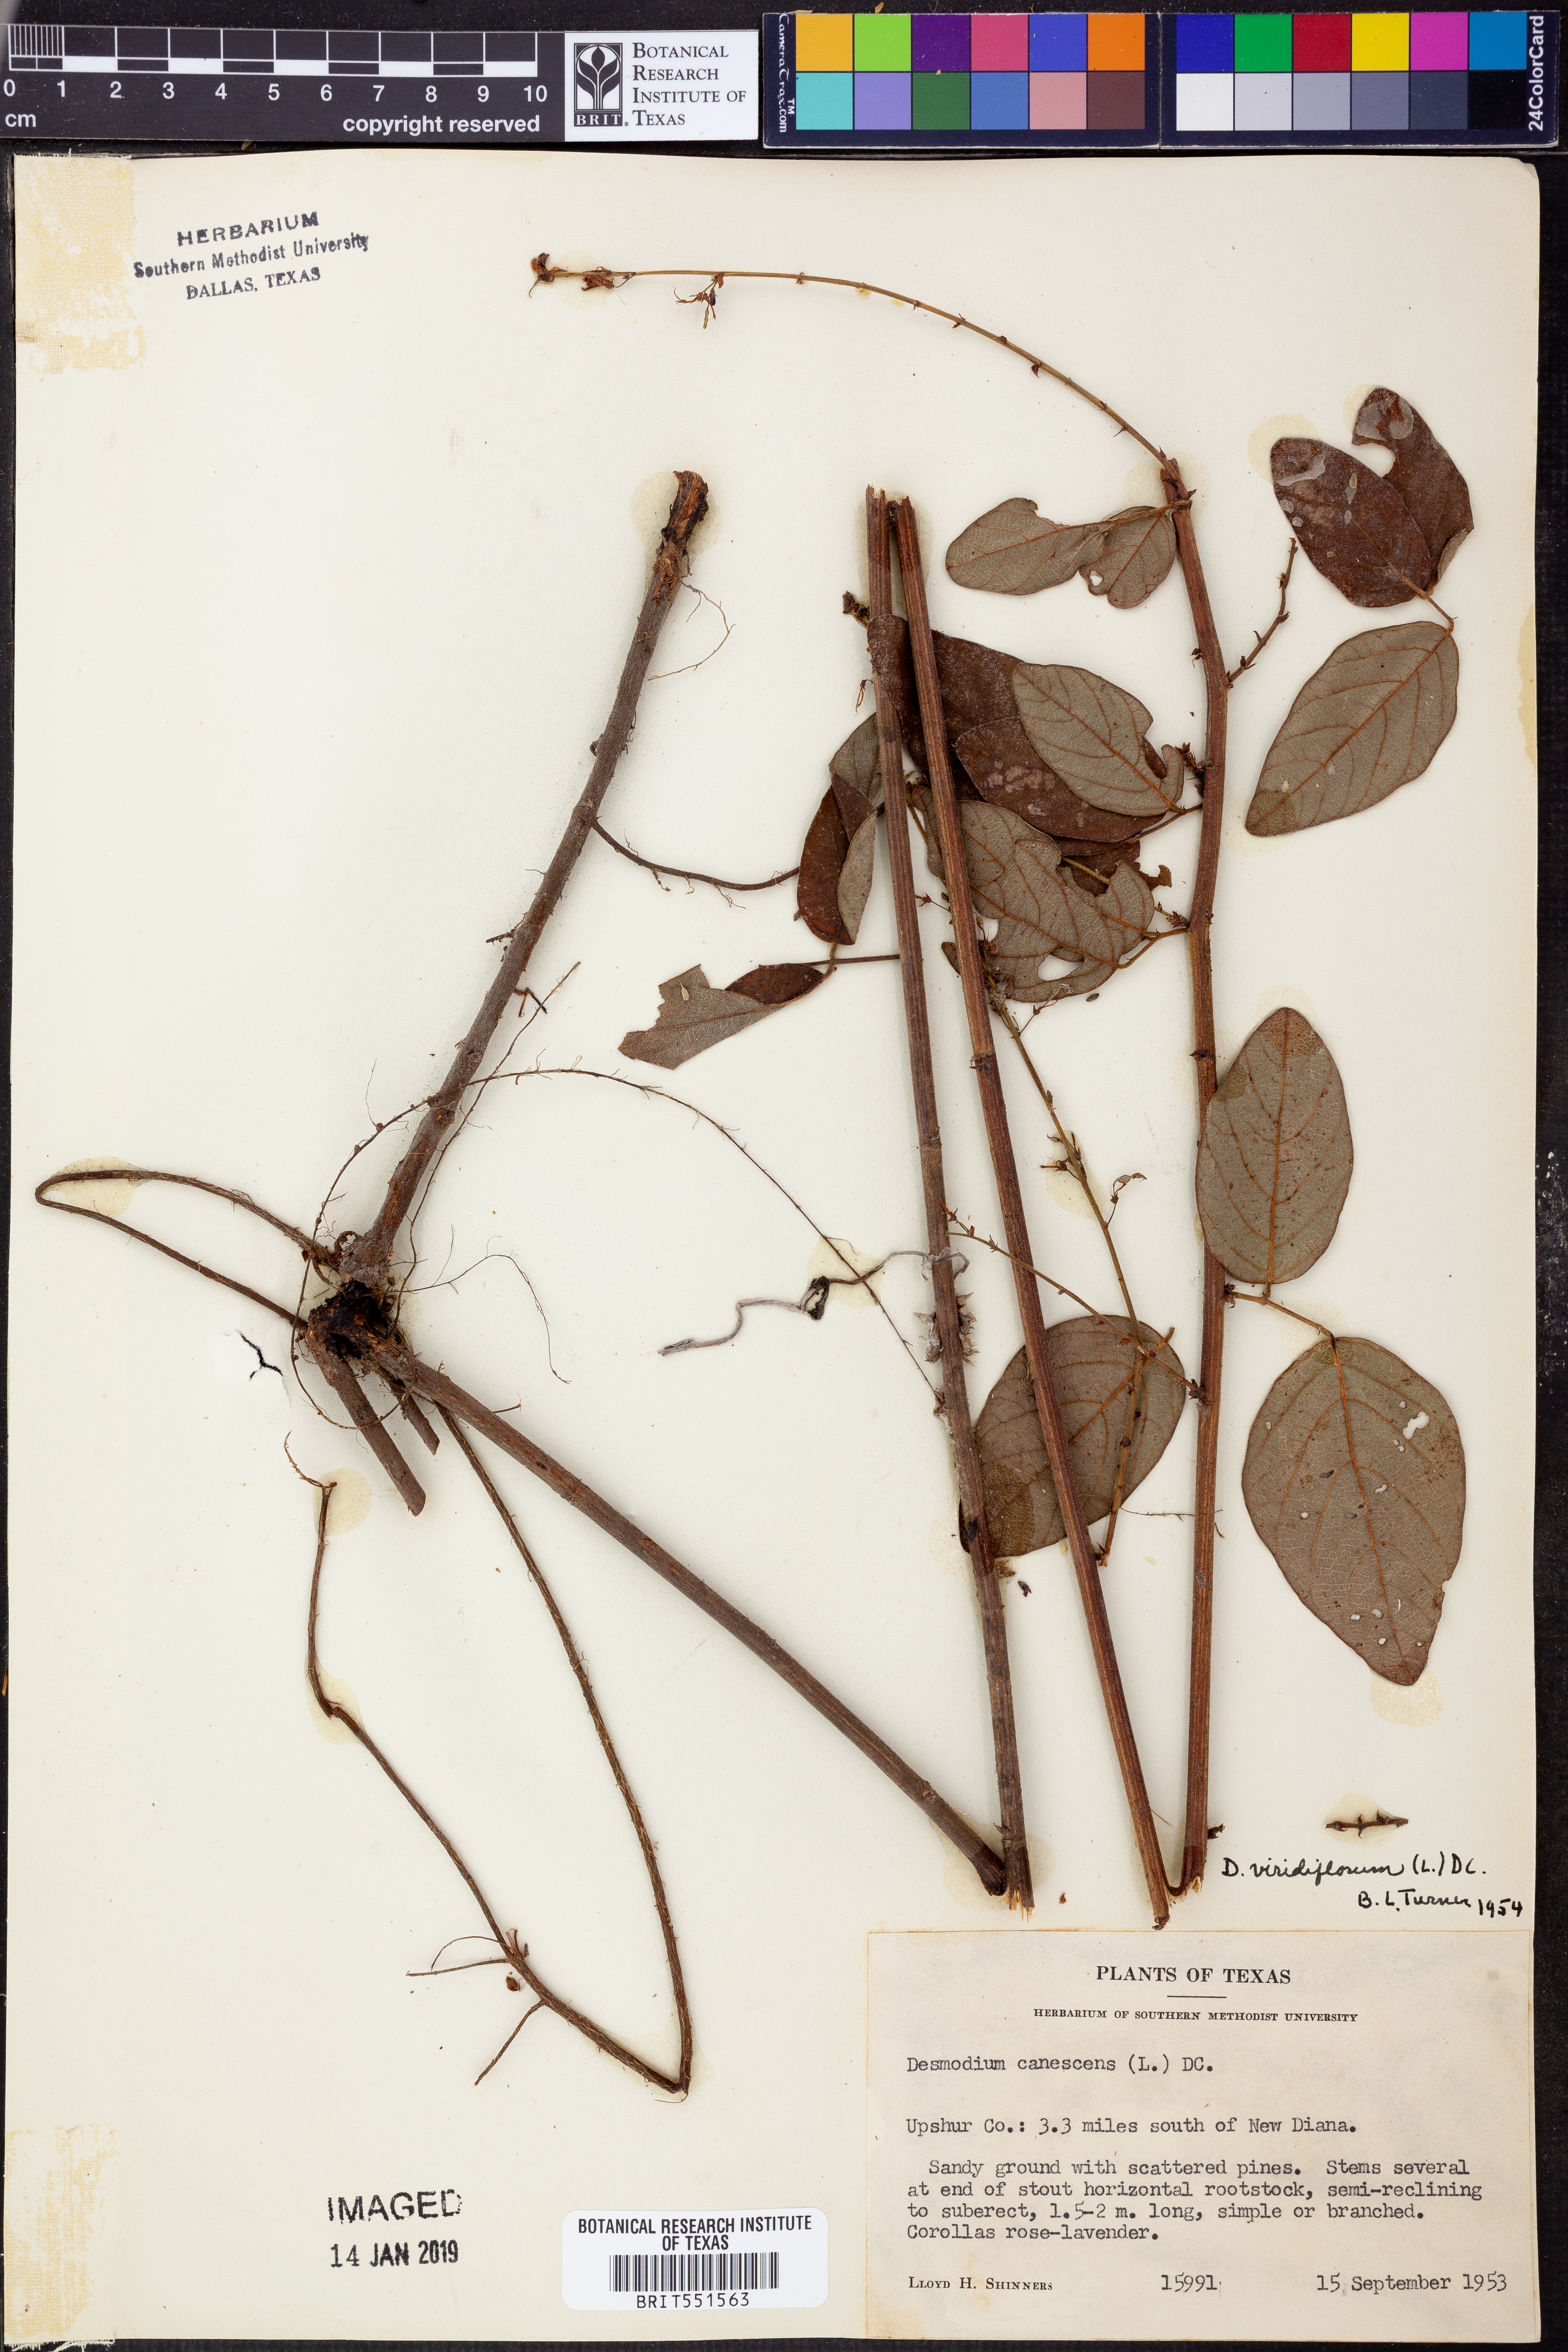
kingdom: Plantae
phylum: Tracheophyta
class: Magnoliopsida
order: Fabales
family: Fabaceae
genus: Desmodium
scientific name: Desmodium viridiflorum
